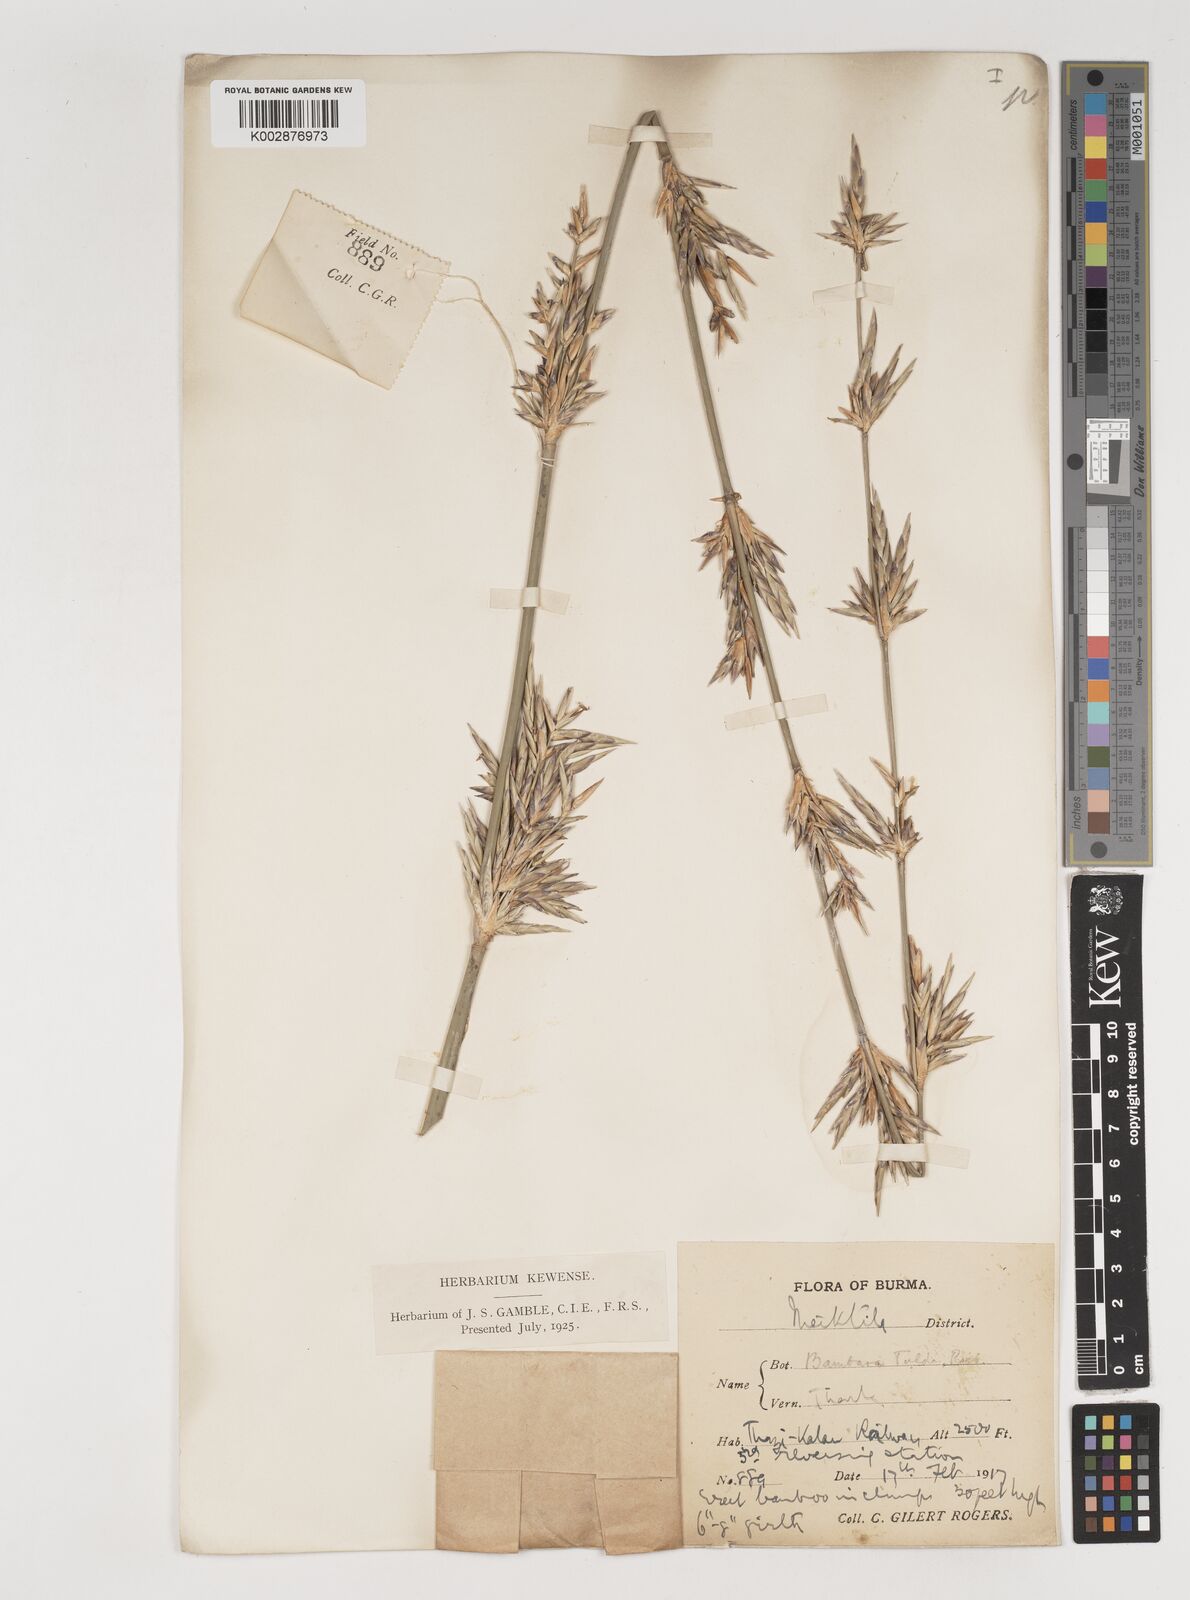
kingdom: Plantae
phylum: Tracheophyta
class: Liliopsida
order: Poales
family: Poaceae
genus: Bambusa
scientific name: Bambusa tulda
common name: Bengal bamboo
